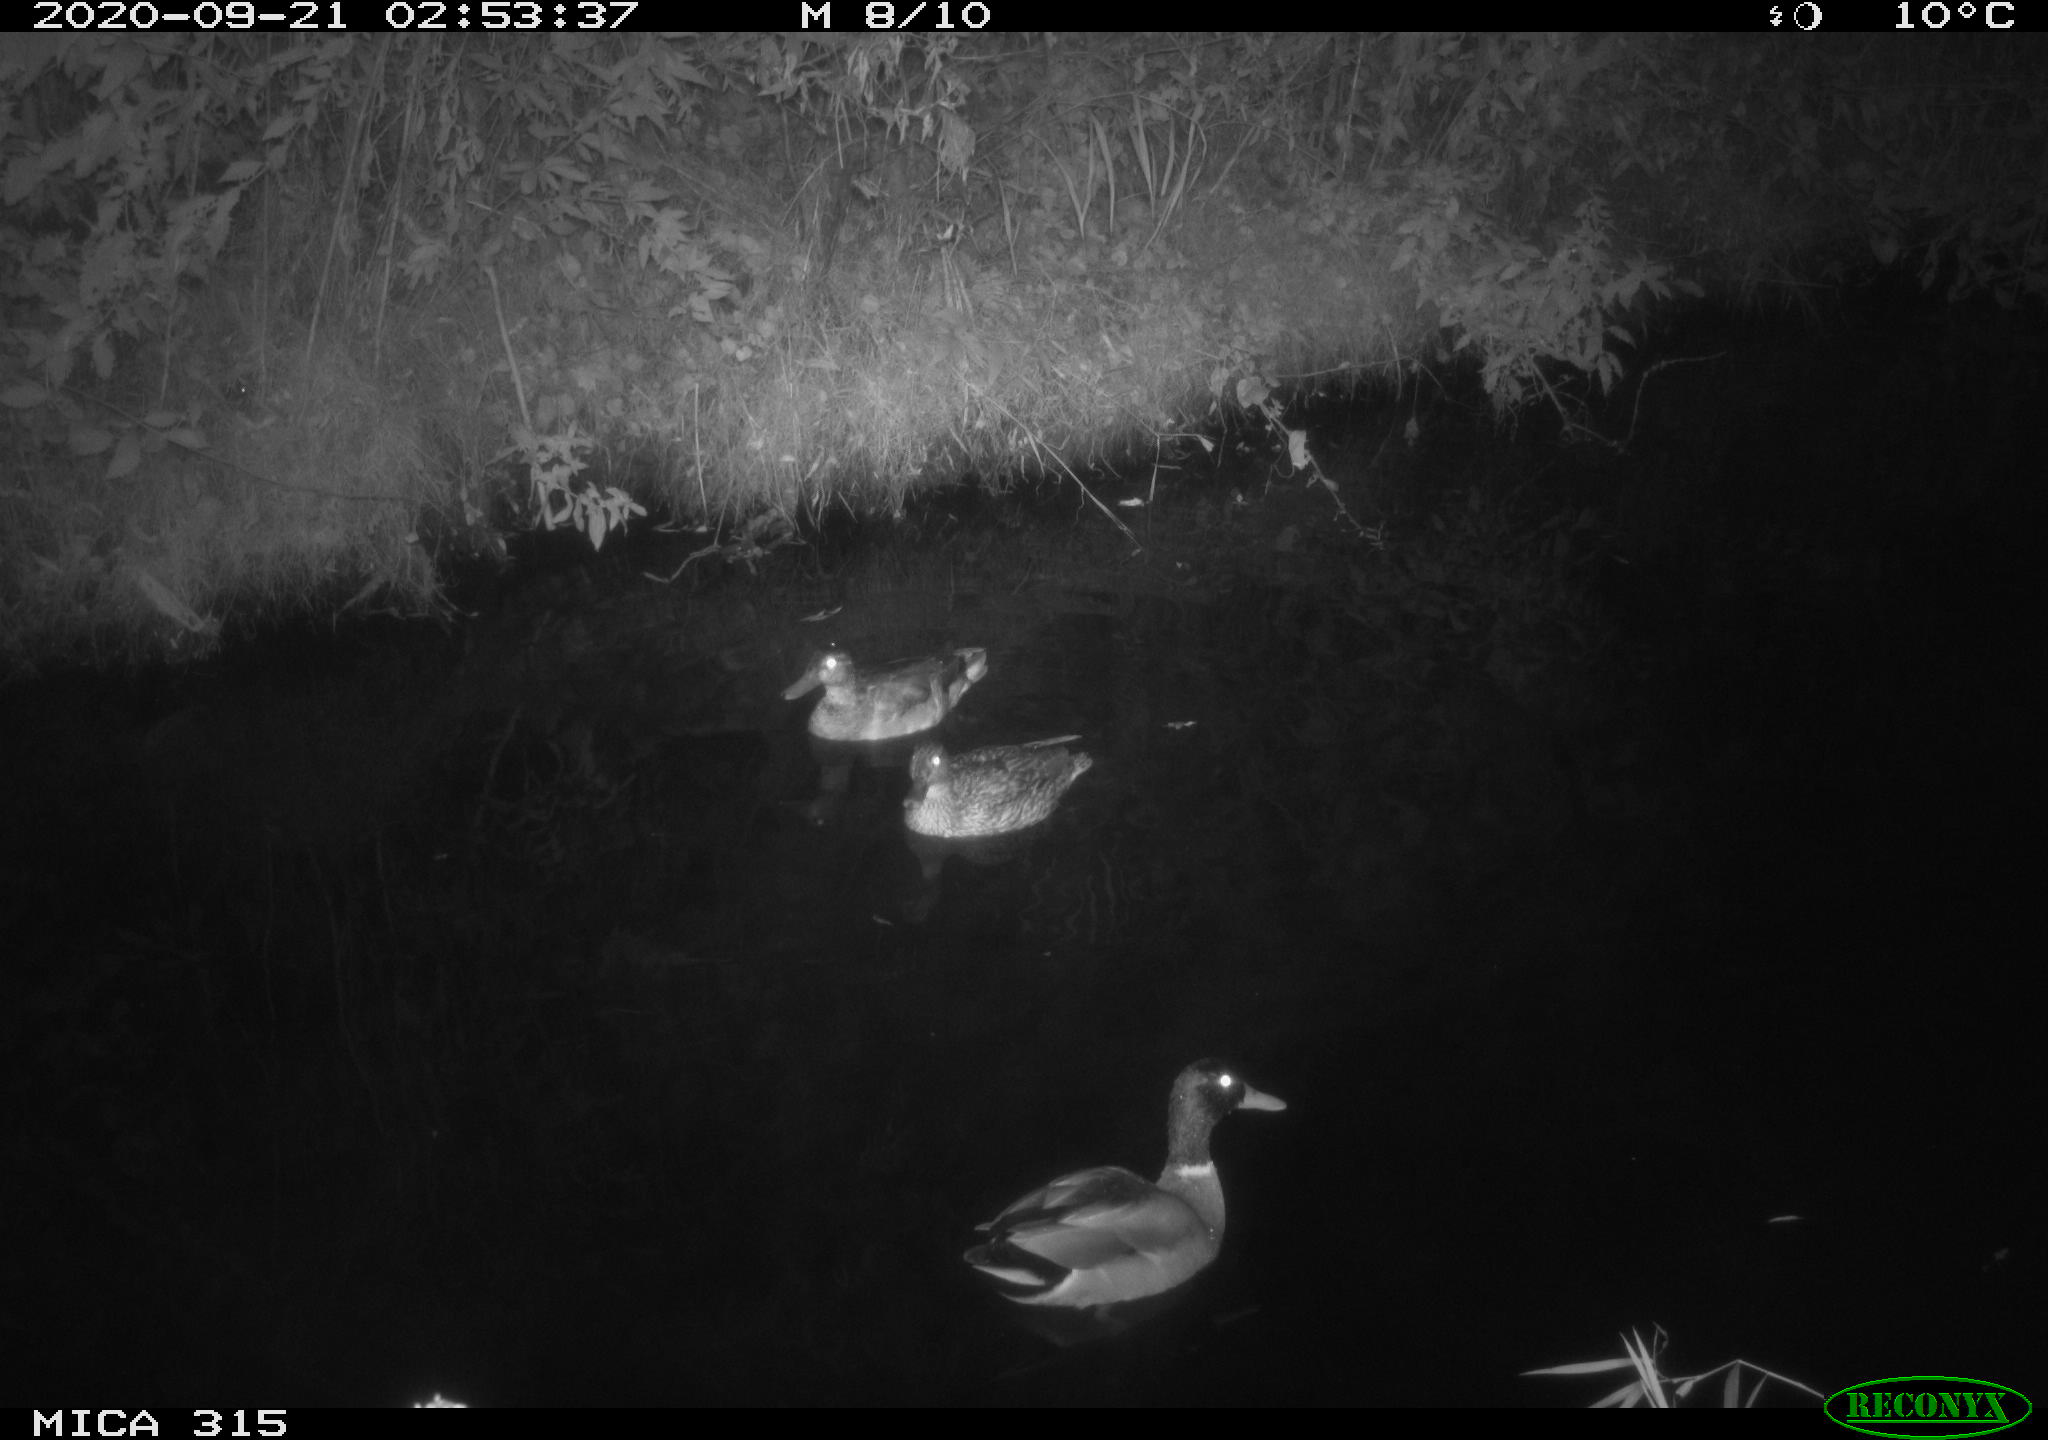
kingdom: Animalia
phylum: Chordata
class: Aves
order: Anseriformes
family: Anatidae
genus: Anas
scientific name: Anas platyrhynchos
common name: Mallard
